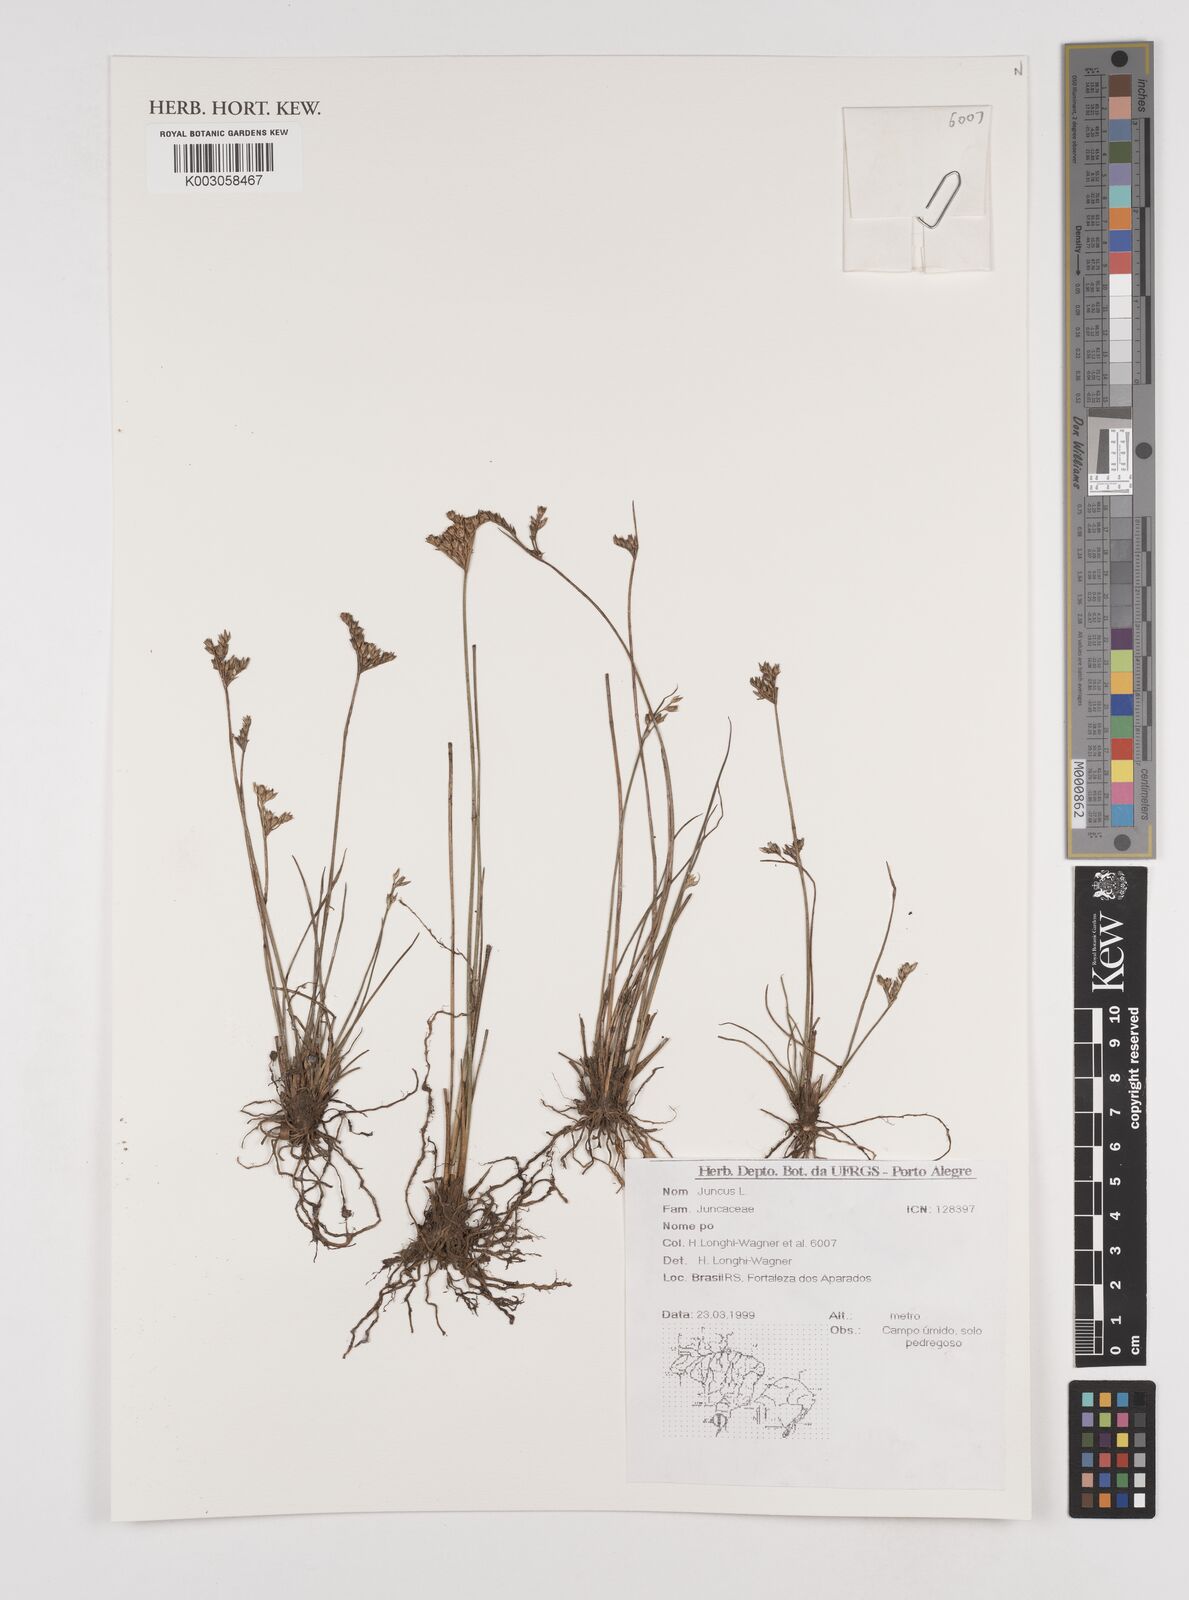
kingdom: Plantae
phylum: Tracheophyta
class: Liliopsida
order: Poales
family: Juncaceae
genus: Juncus
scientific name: Juncus
